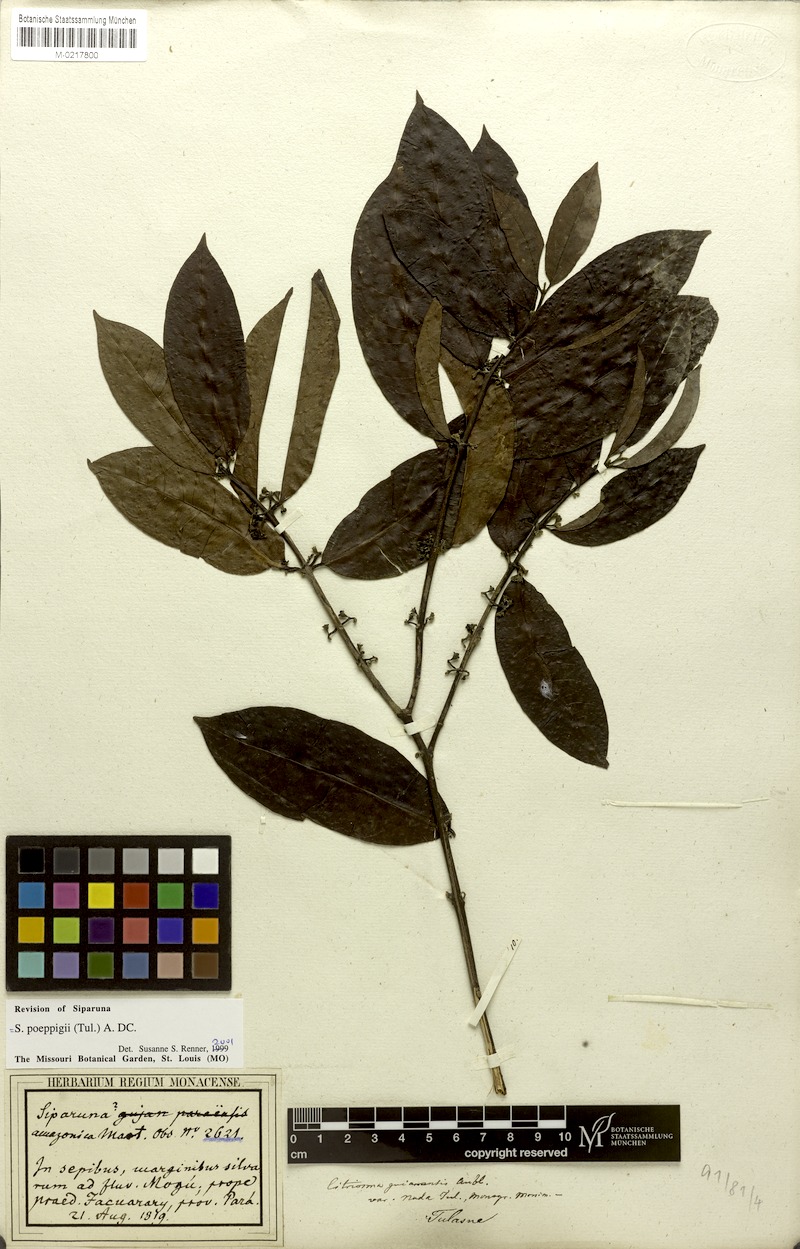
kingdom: Plantae
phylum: Tracheophyta
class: Magnoliopsida
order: Laurales
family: Siparunaceae
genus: Siparuna
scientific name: Siparuna poeppigii
